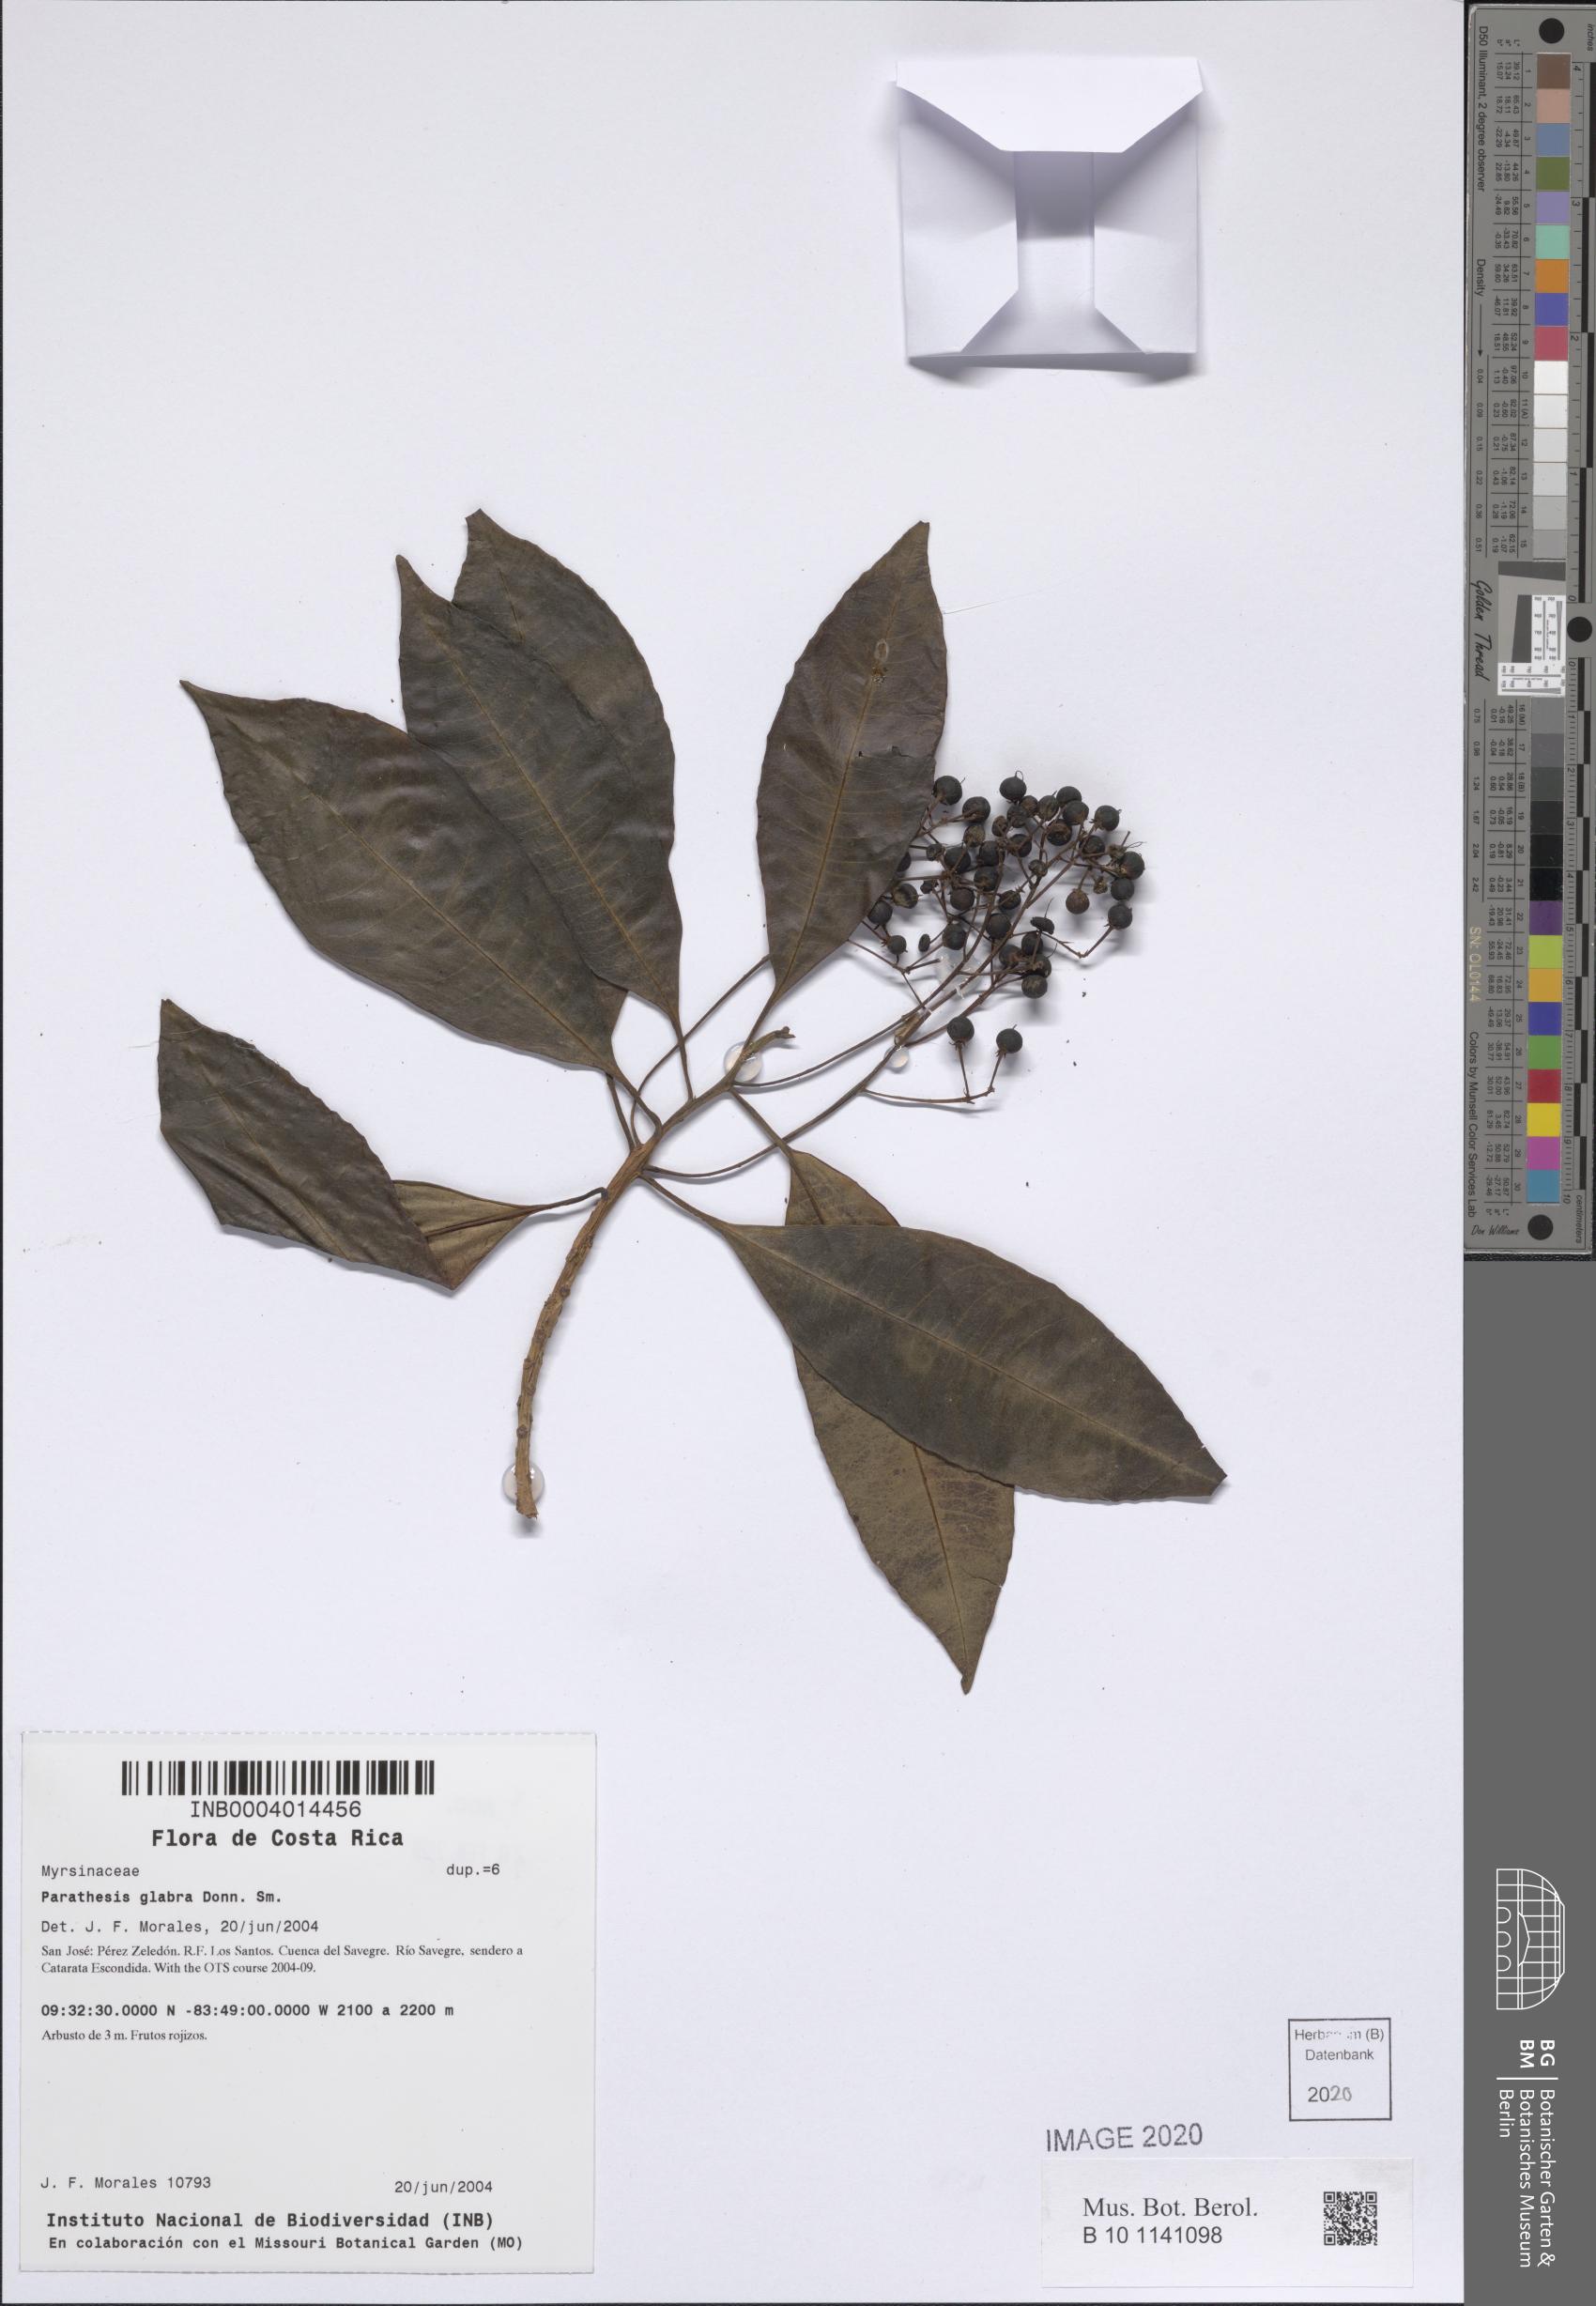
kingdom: Plantae
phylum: Tracheophyta
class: Magnoliopsida
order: Ericales
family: Primulaceae
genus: Parathesis
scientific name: Parathesis glabra
